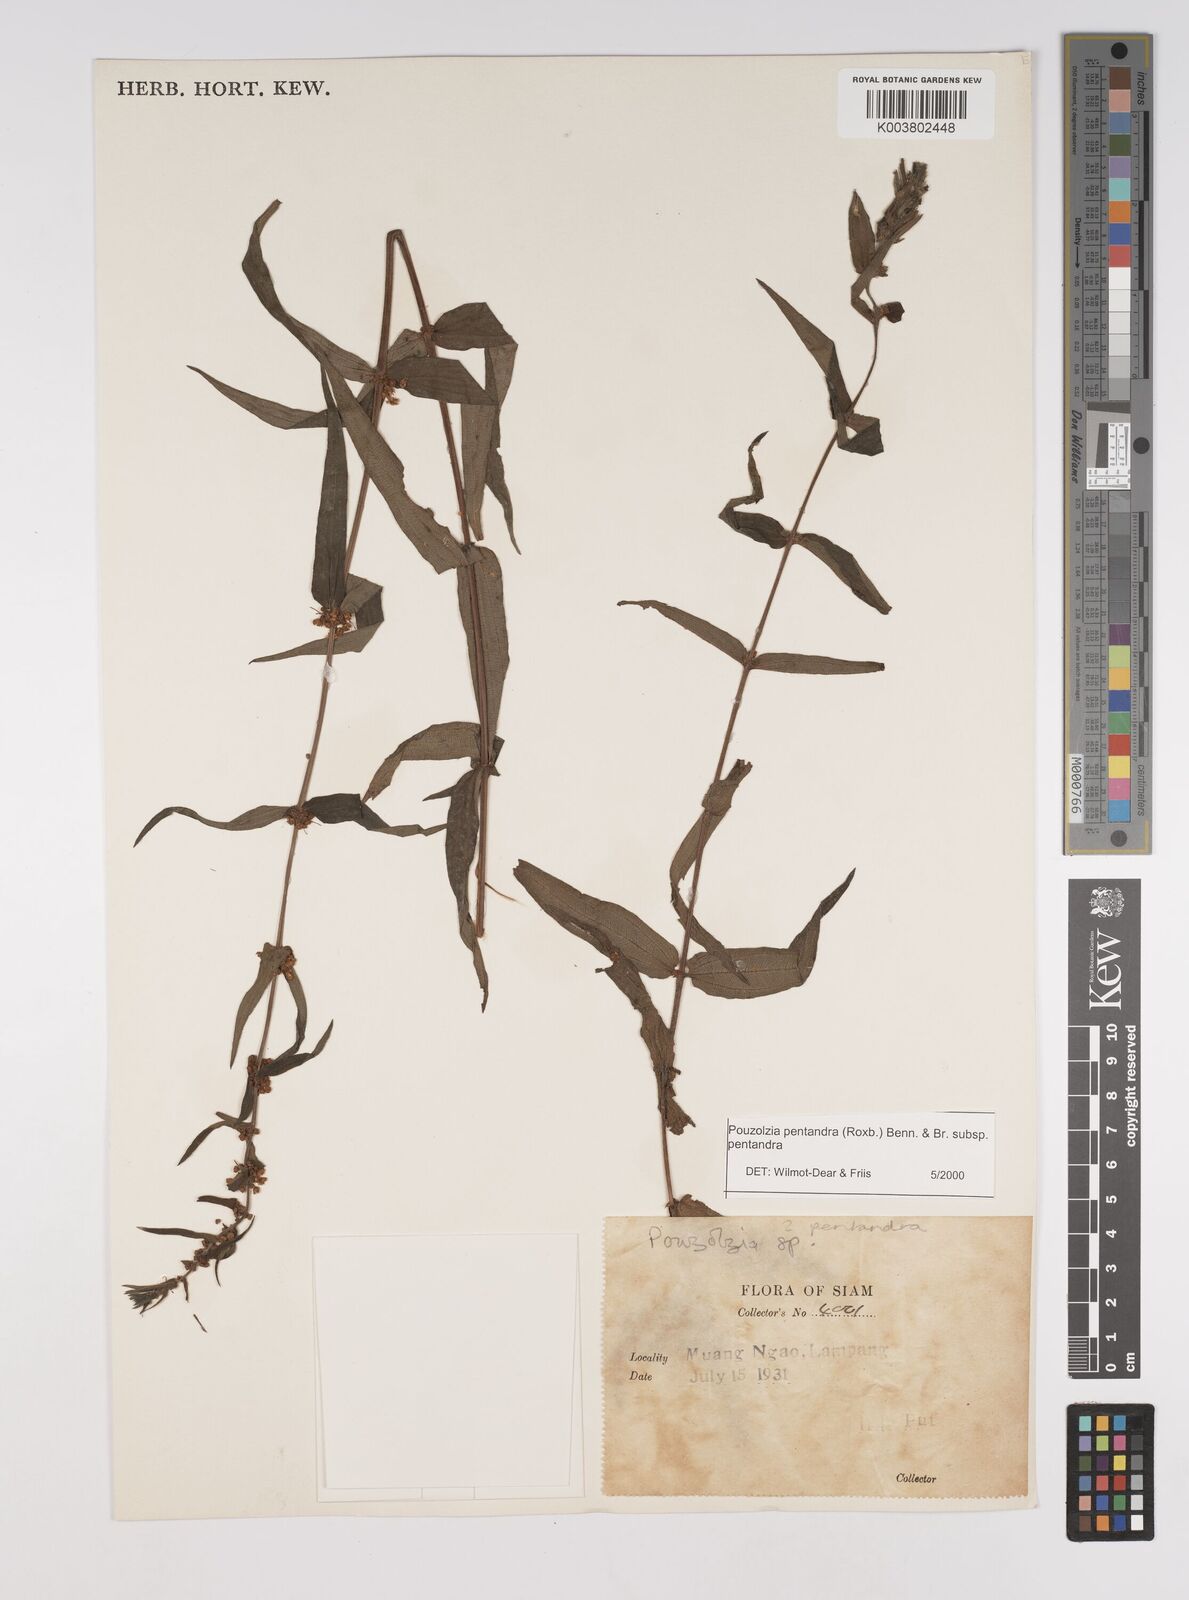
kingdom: Plantae
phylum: Tracheophyta
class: Magnoliopsida
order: Rosales
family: Urticaceae
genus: Gonostegia
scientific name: Gonostegia pentandra
